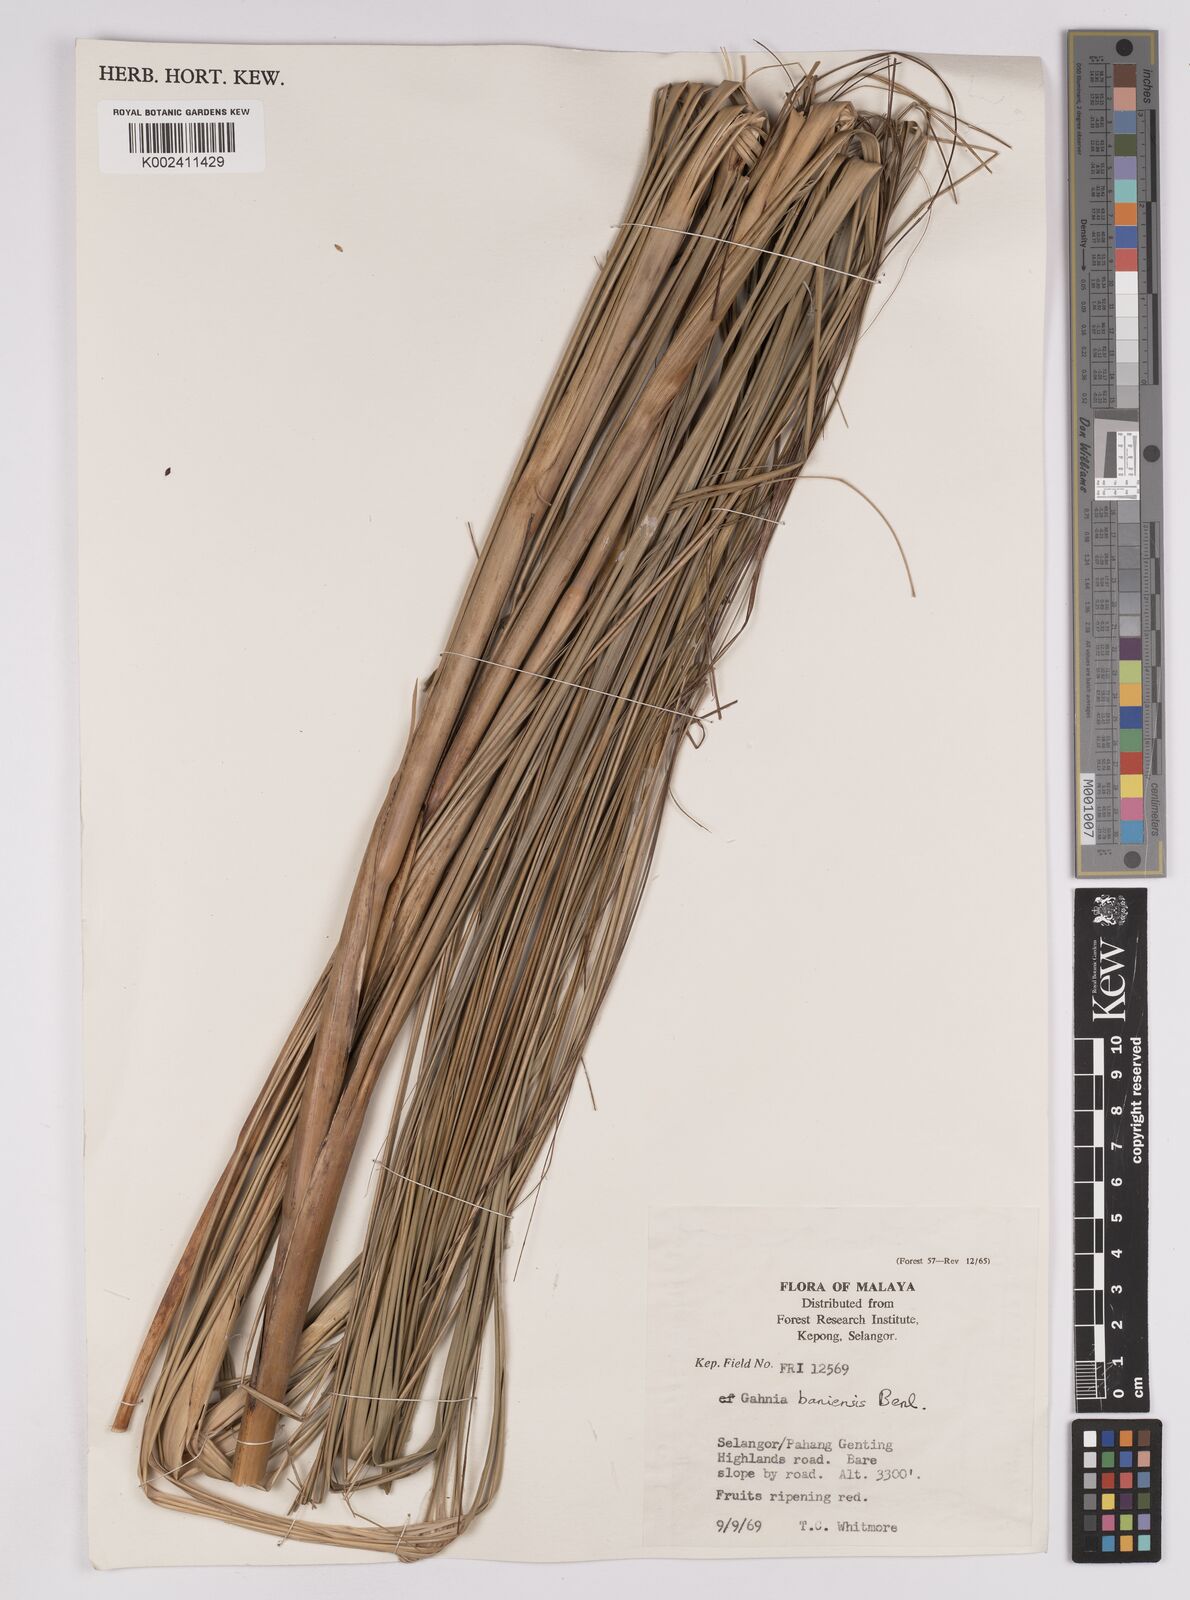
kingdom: Plantae
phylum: Tracheophyta
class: Liliopsida
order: Poales
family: Cyperaceae
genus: Gahnia
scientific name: Gahnia baniensis
